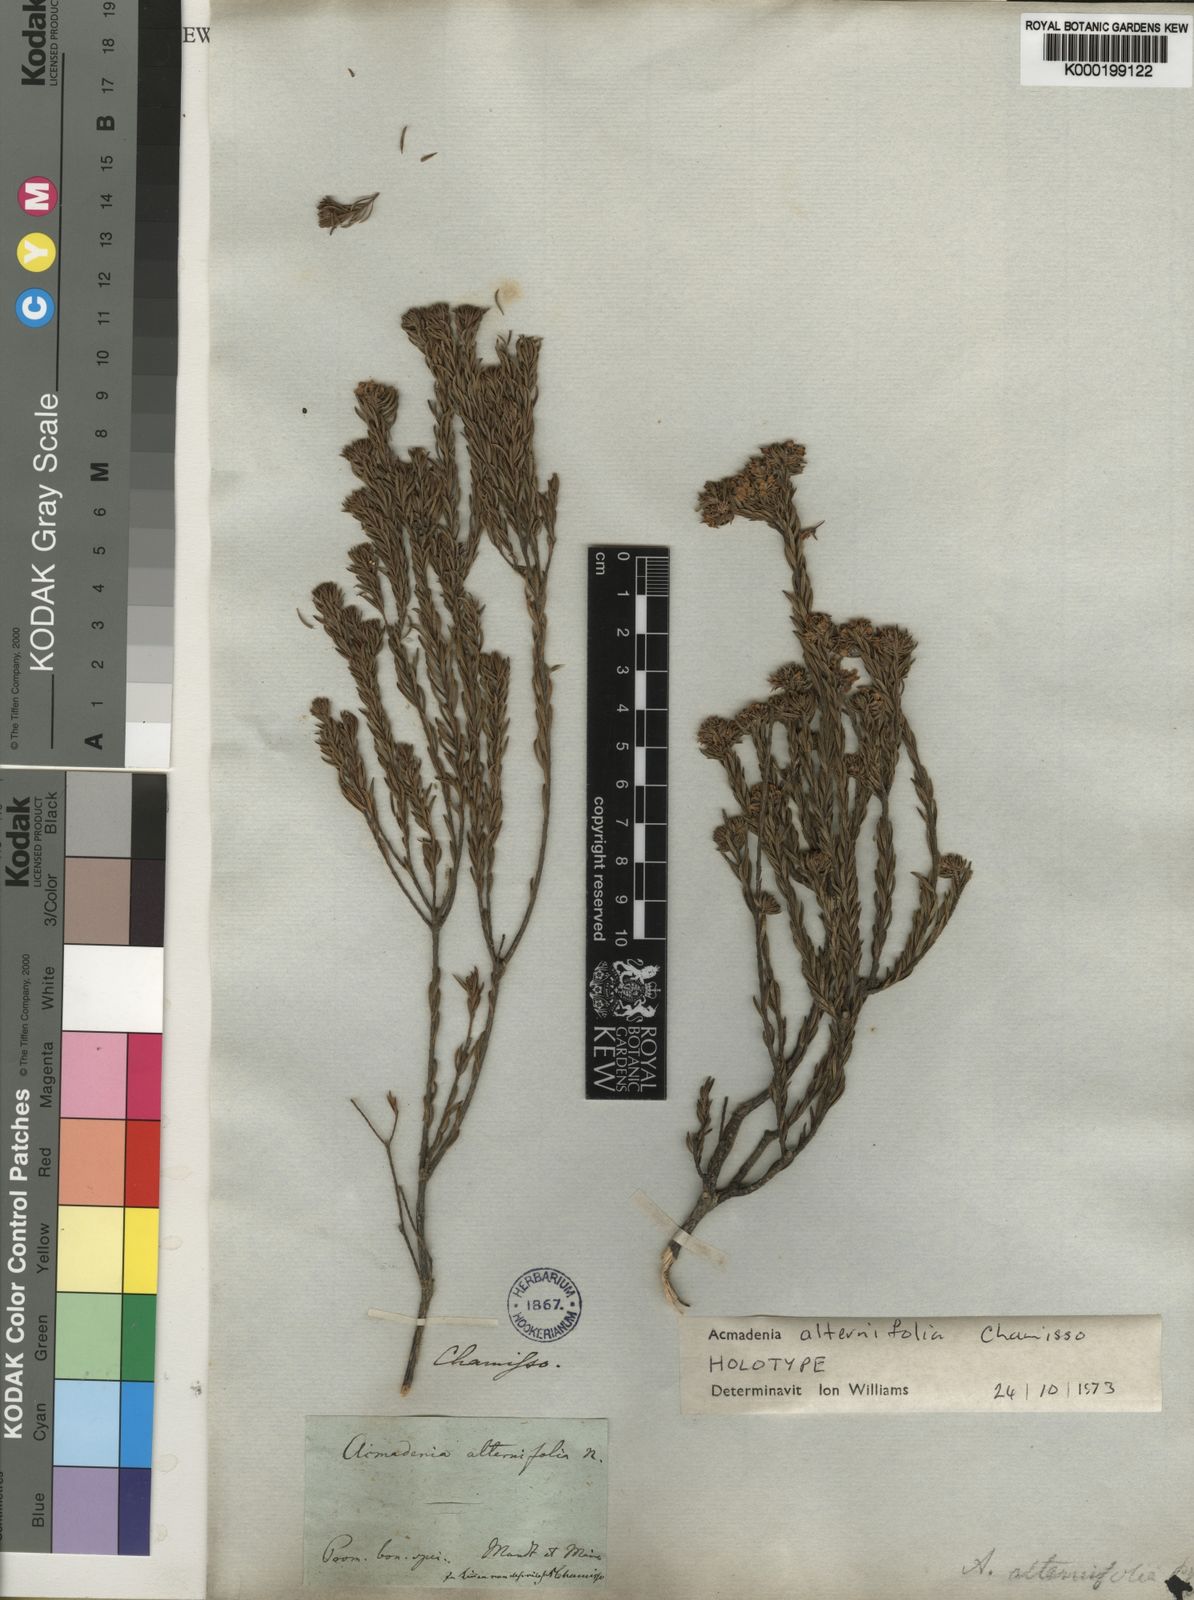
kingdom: Plantae
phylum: Tracheophyta
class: Magnoliopsida
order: Sapindales
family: Rutaceae
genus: Acmadenia
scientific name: Acmadenia alternifolia
